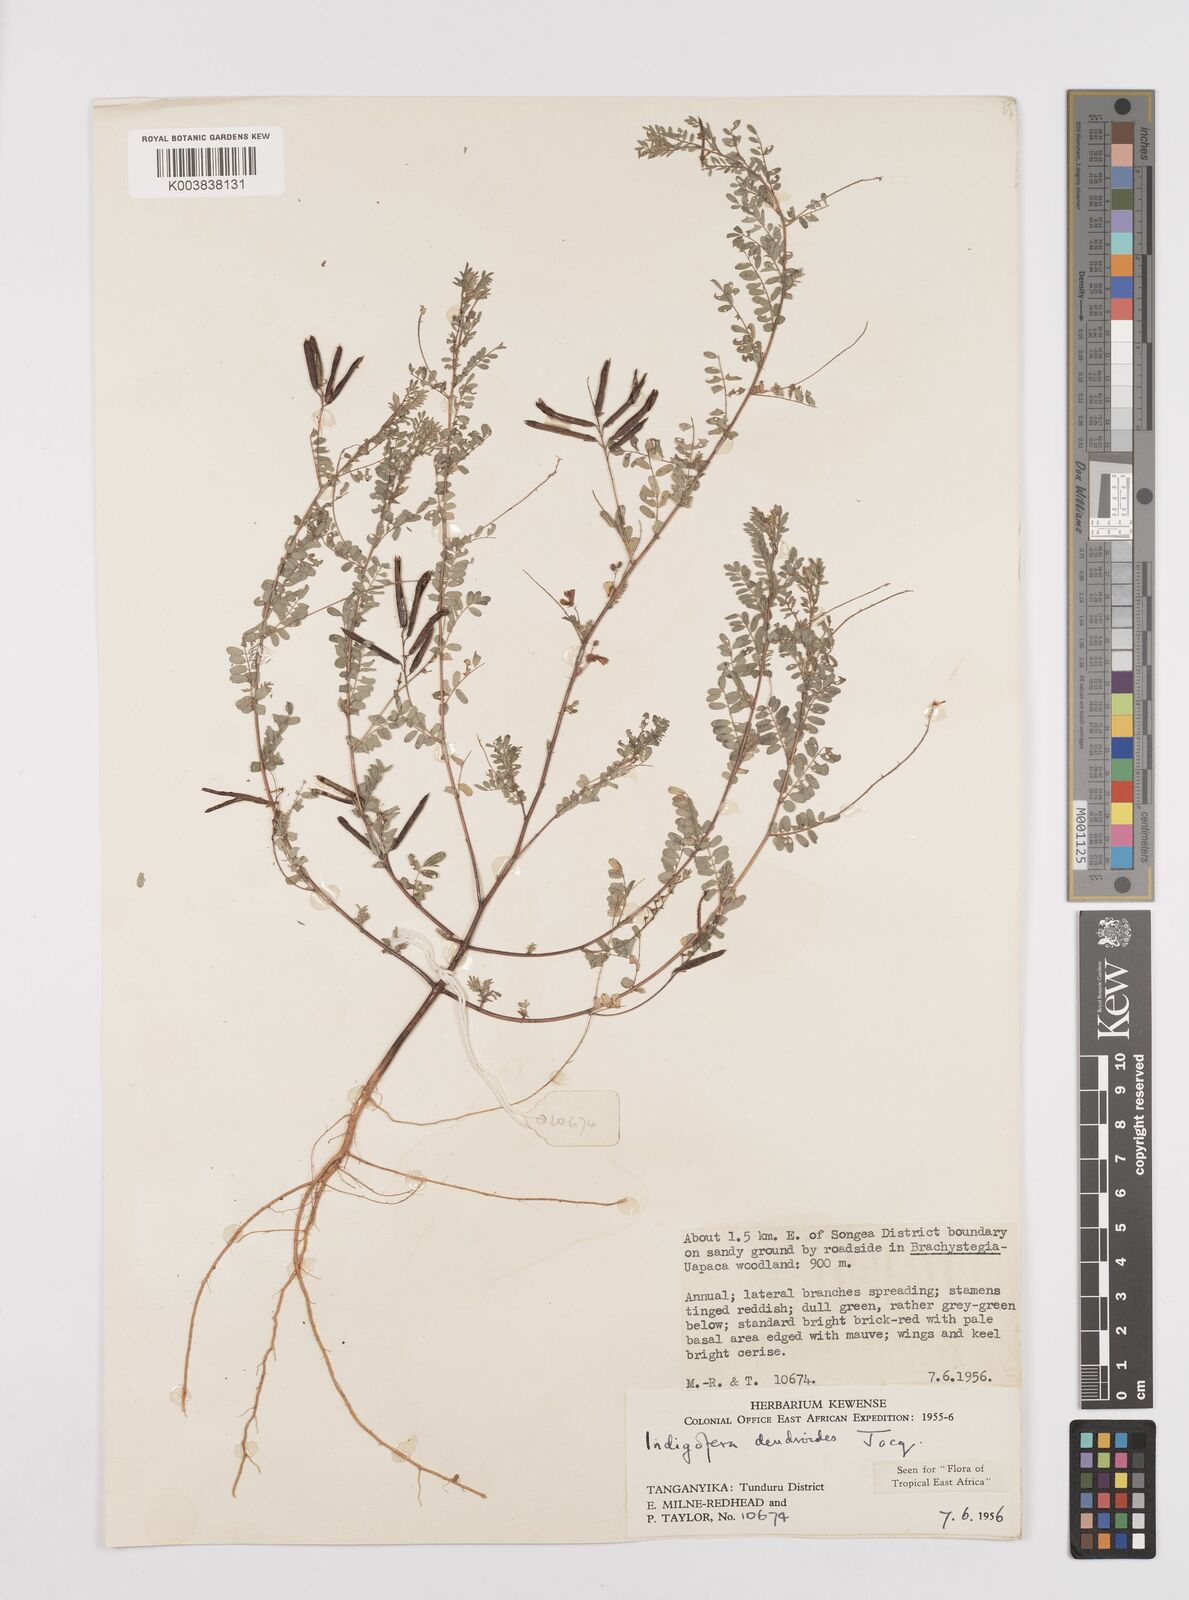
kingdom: Plantae
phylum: Tracheophyta
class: Magnoliopsida
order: Fabales
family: Fabaceae
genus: Indigofera
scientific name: Indigofera dendroides
